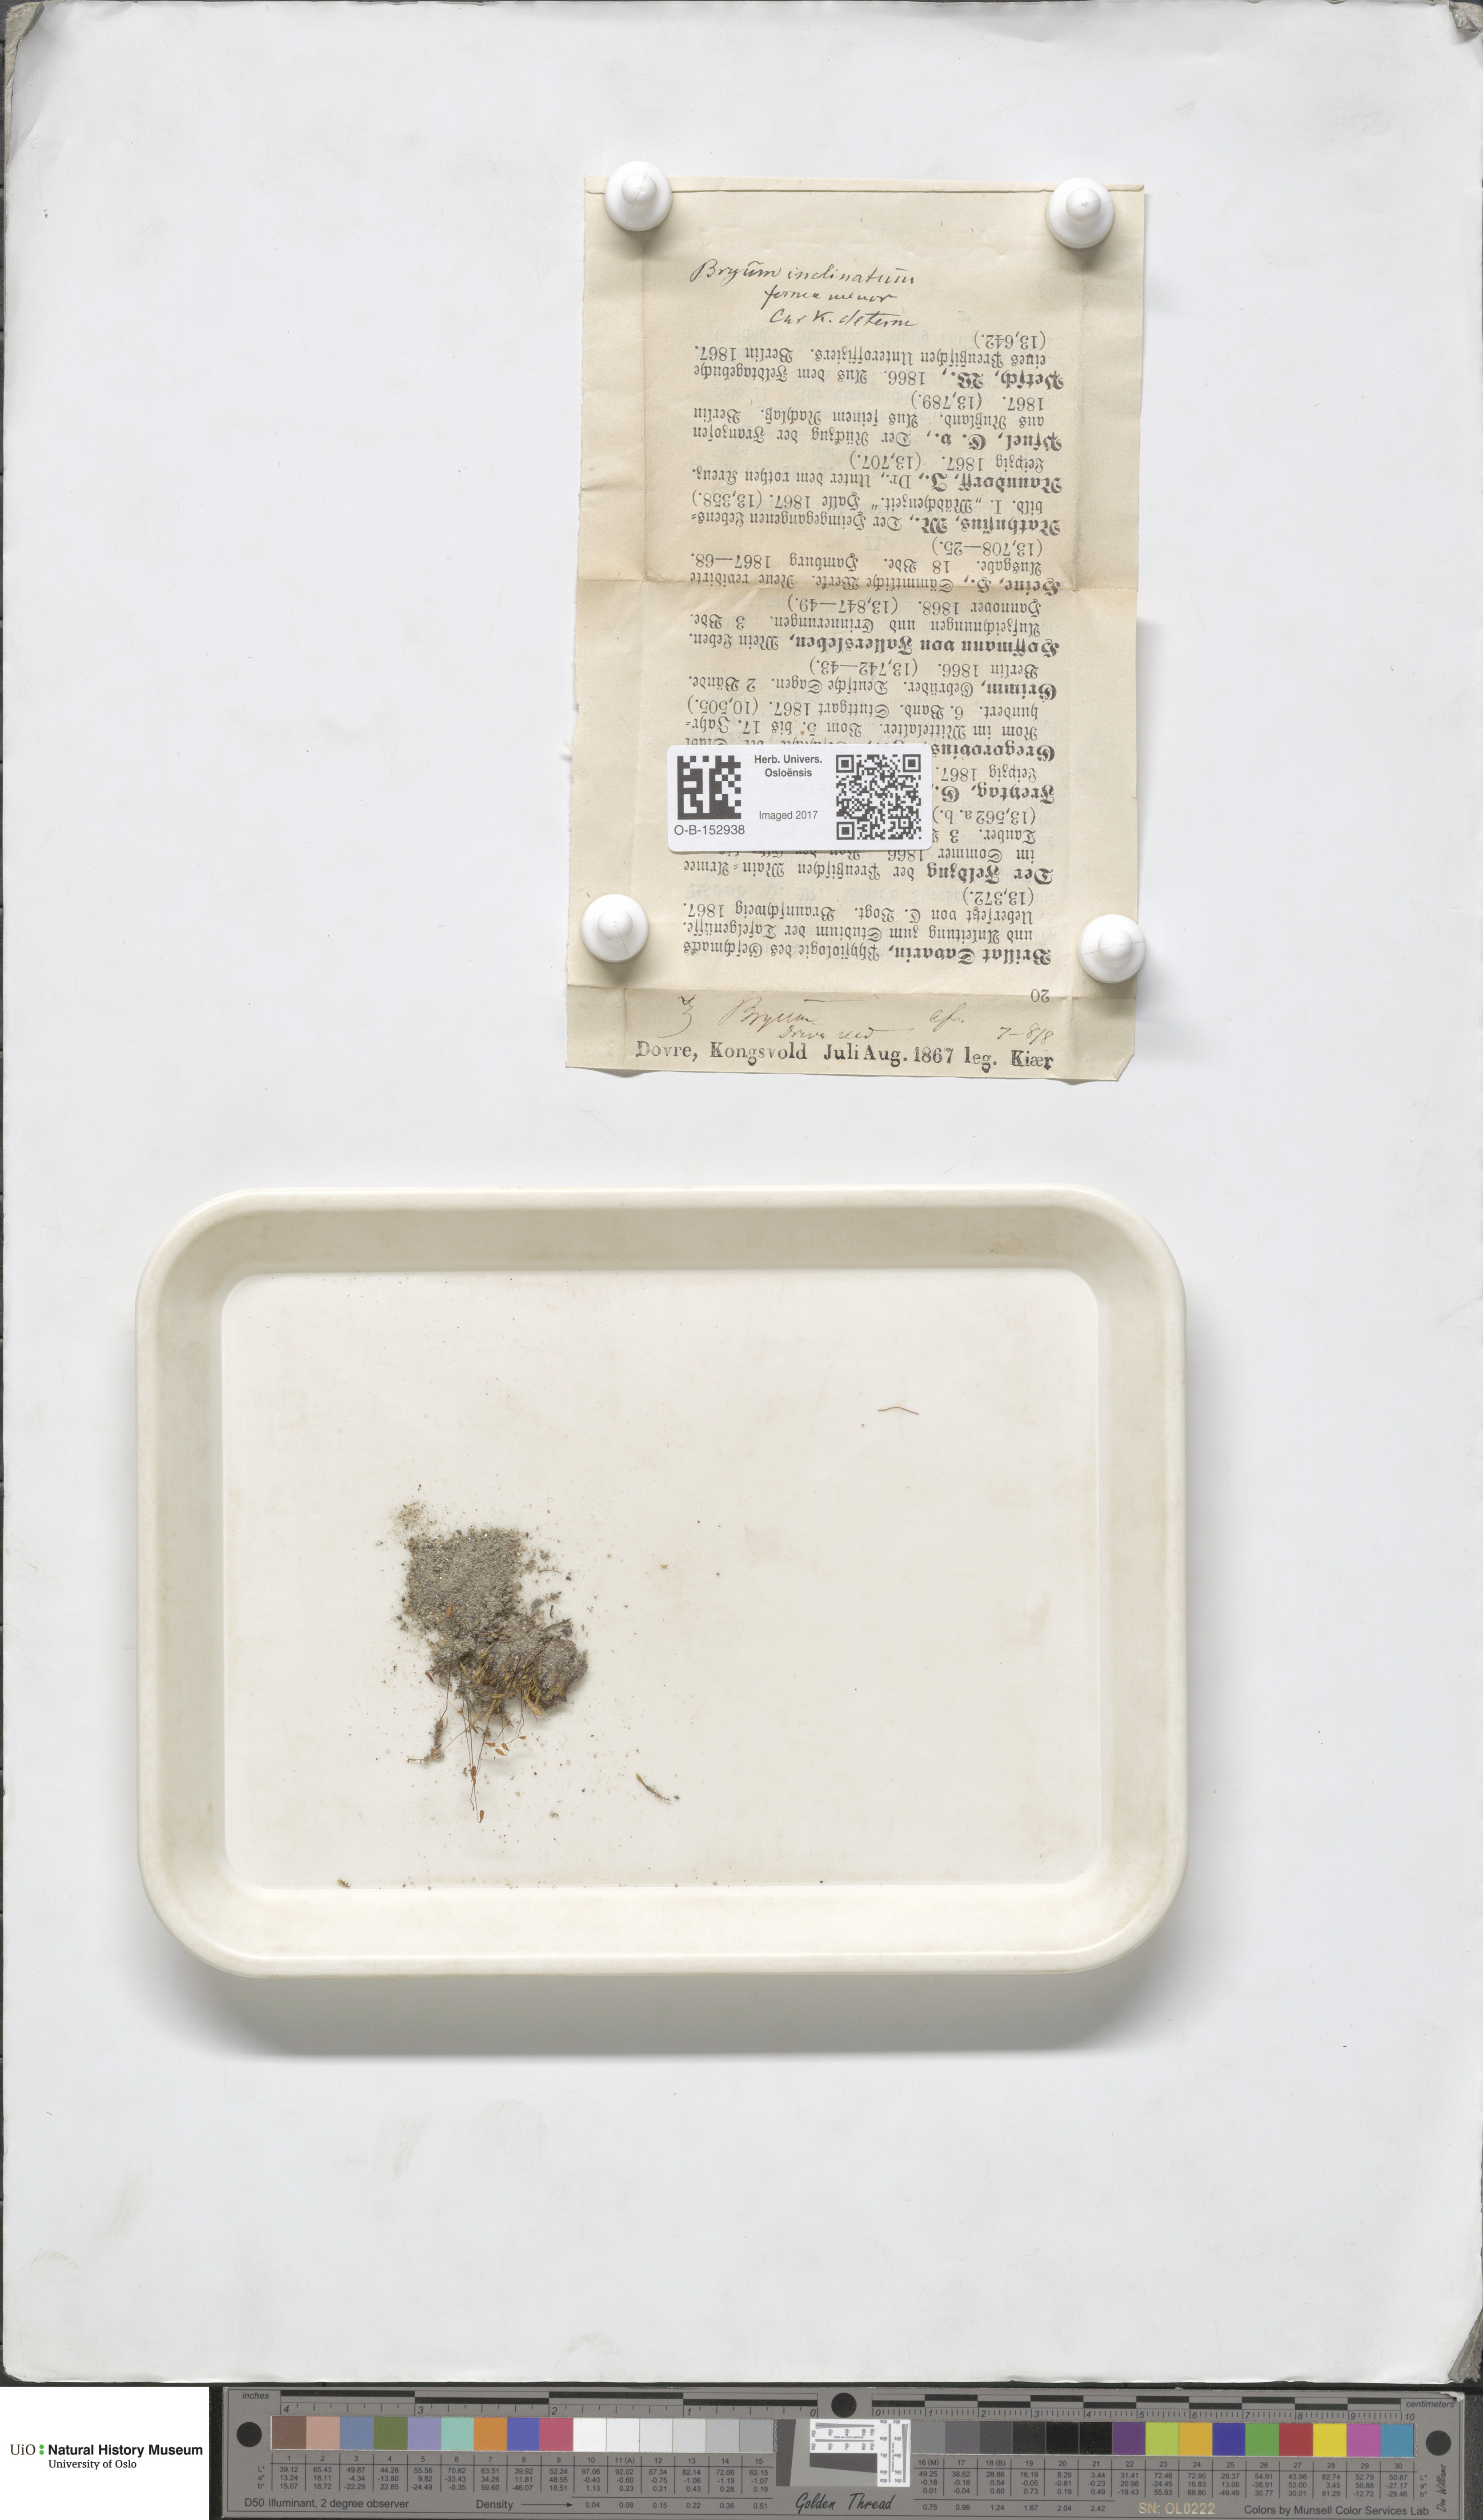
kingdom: Plantae
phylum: Bryophyta
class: Bryopsida
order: Bryales
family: Bryaceae
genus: Ptychostomum
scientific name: Ptychostomum inclinatum
